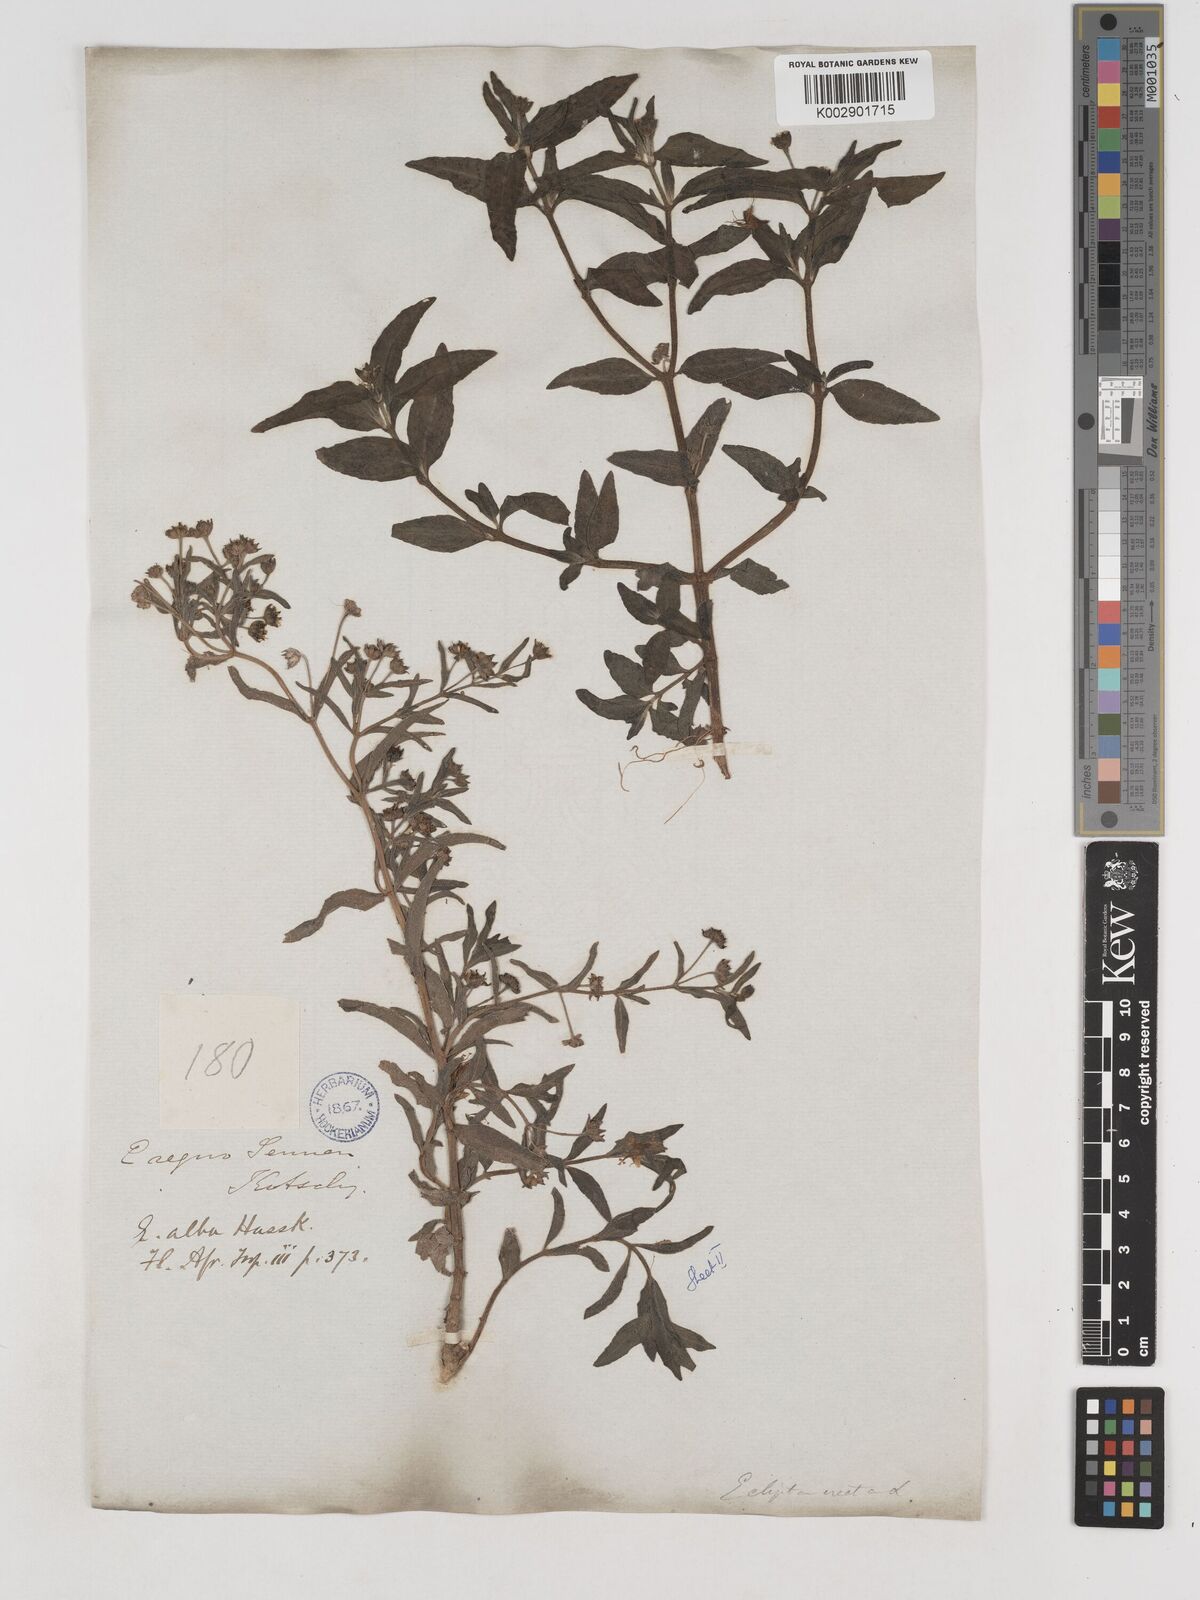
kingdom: Plantae
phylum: Tracheophyta
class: Magnoliopsida
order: Asterales
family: Asteraceae
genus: Eclipta
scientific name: Eclipta alba
